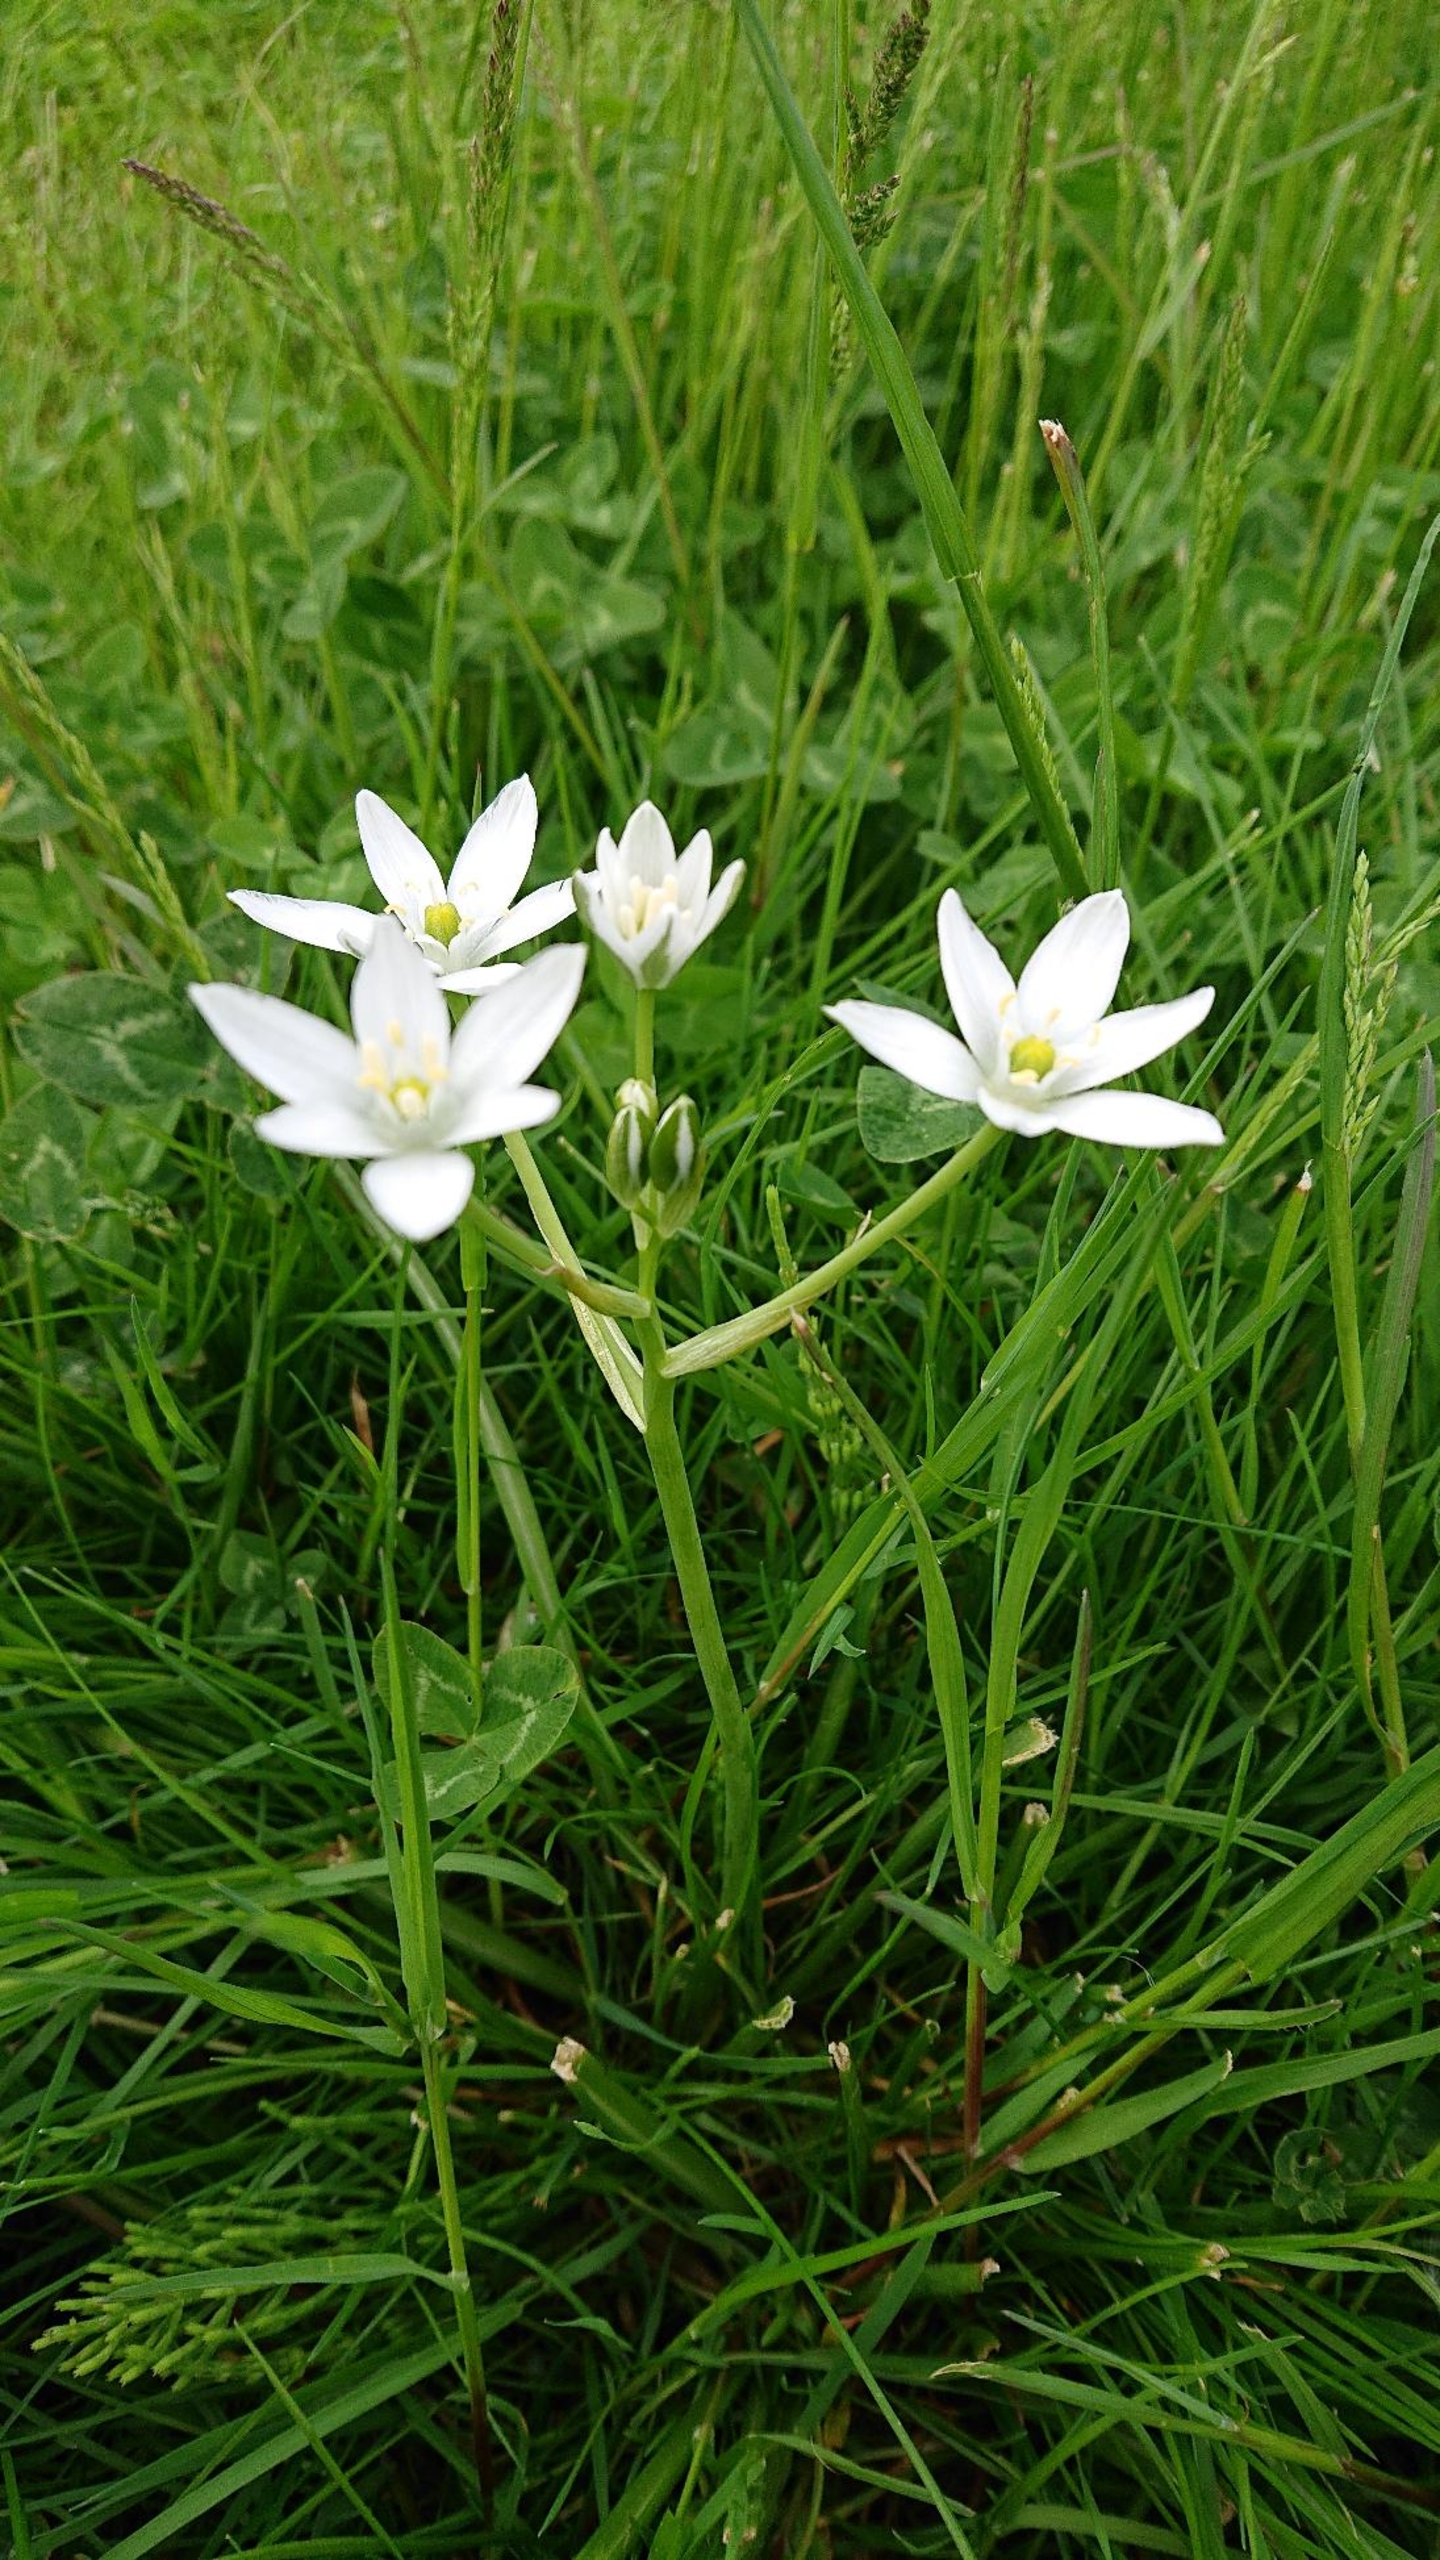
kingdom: Plantae
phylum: Tracheophyta
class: Liliopsida
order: Asparagales
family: Asparagaceae
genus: Ornithogalum
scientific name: Ornithogalum umbellatum
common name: Kost-fuglemælk
